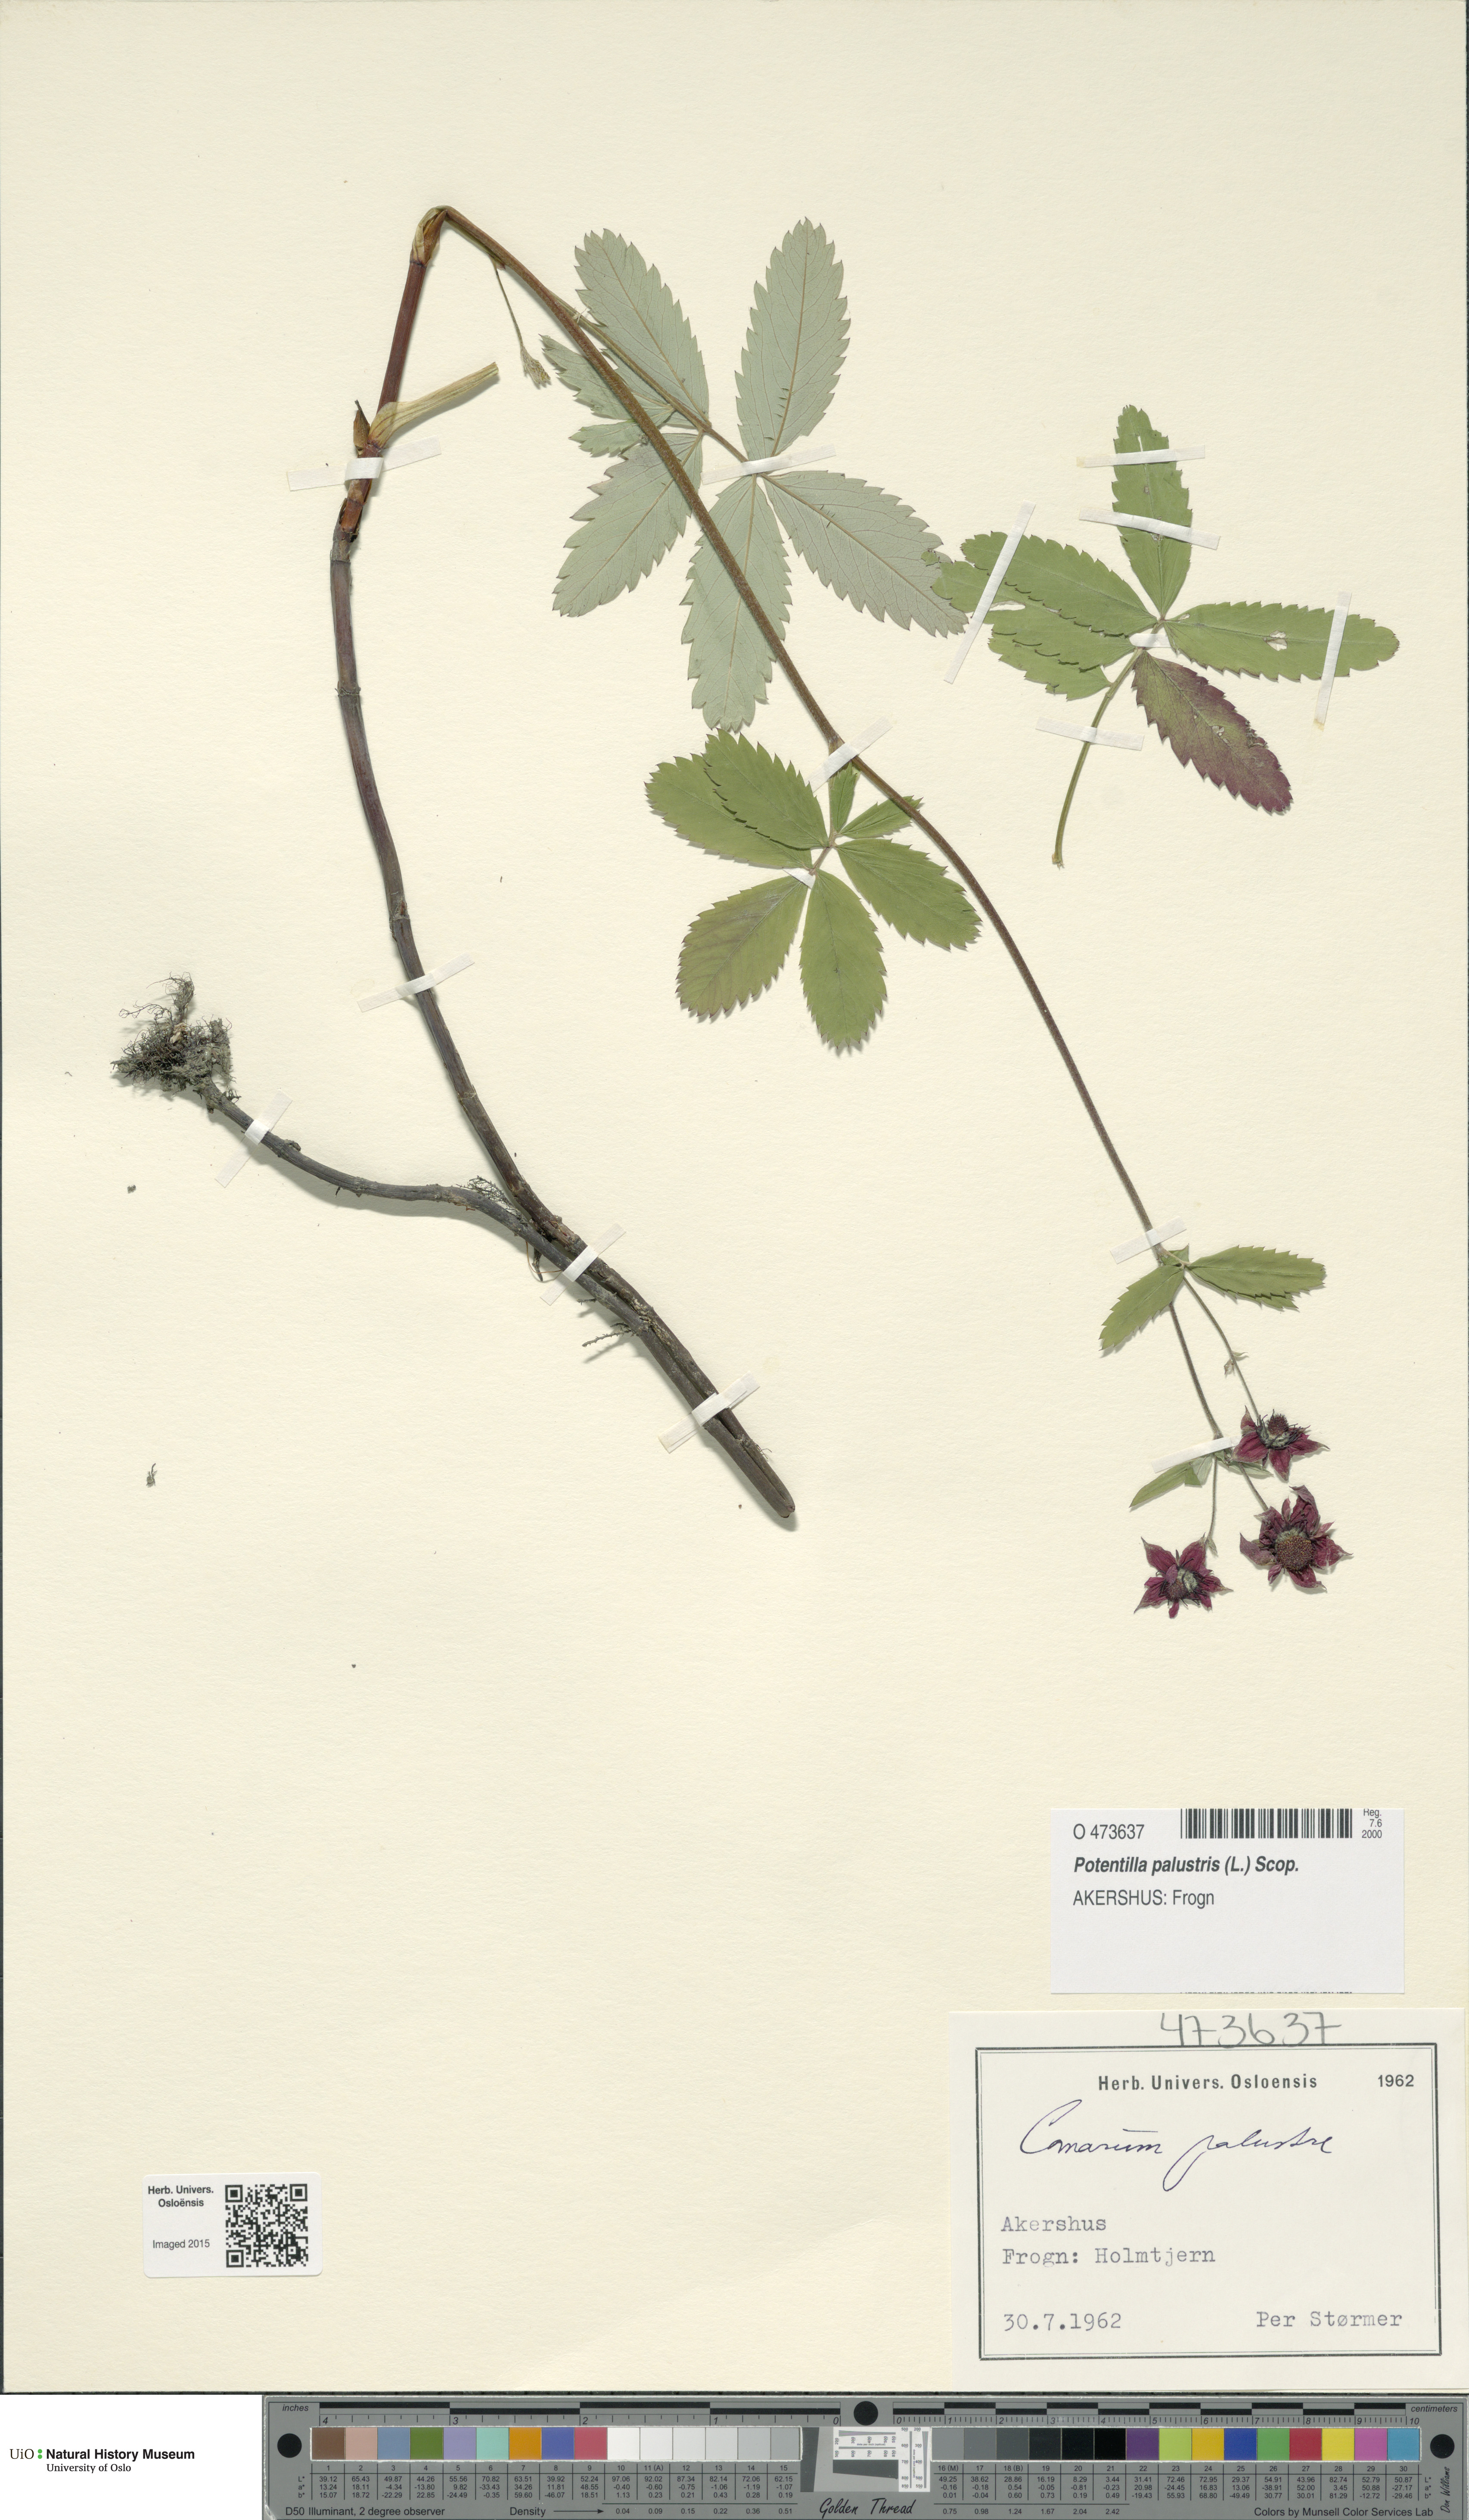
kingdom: Plantae
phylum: Tracheophyta
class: Magnoliopsida
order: Rosales
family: Rosaceae
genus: Comarum
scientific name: Comarum palustre
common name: Marsh cinquefoil
